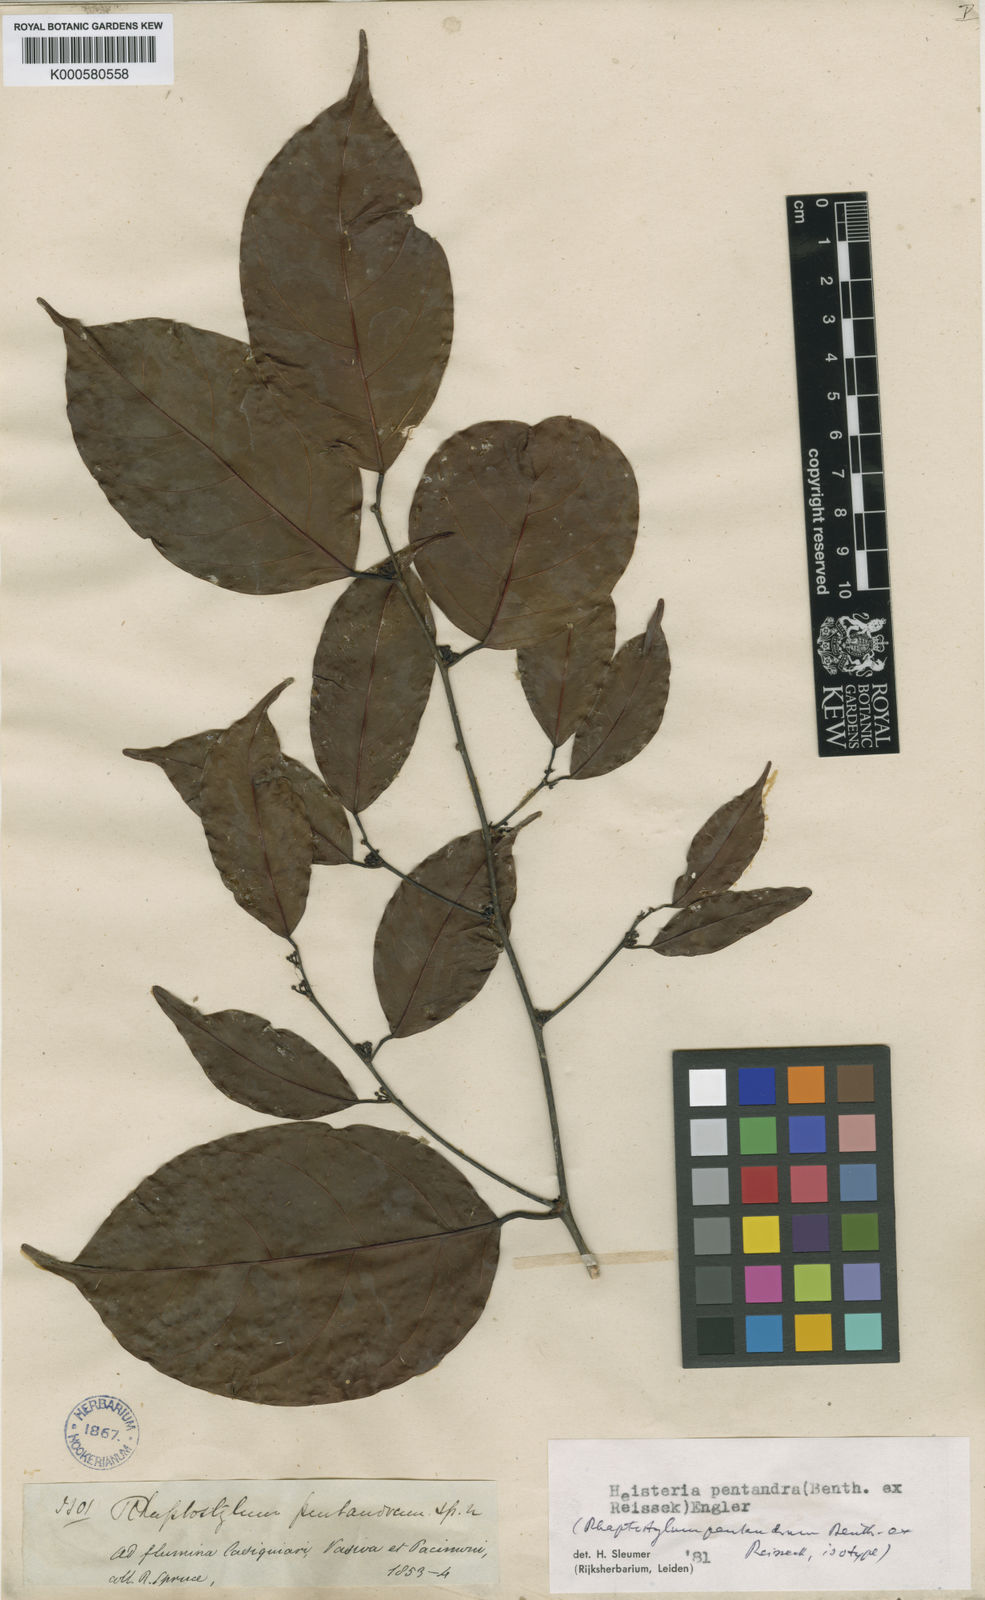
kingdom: Plantae
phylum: Tracheophyta
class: Magnoliopsida
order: Santalales
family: Erythropalaceae
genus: Heisteria
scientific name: Heisteria pentandra
